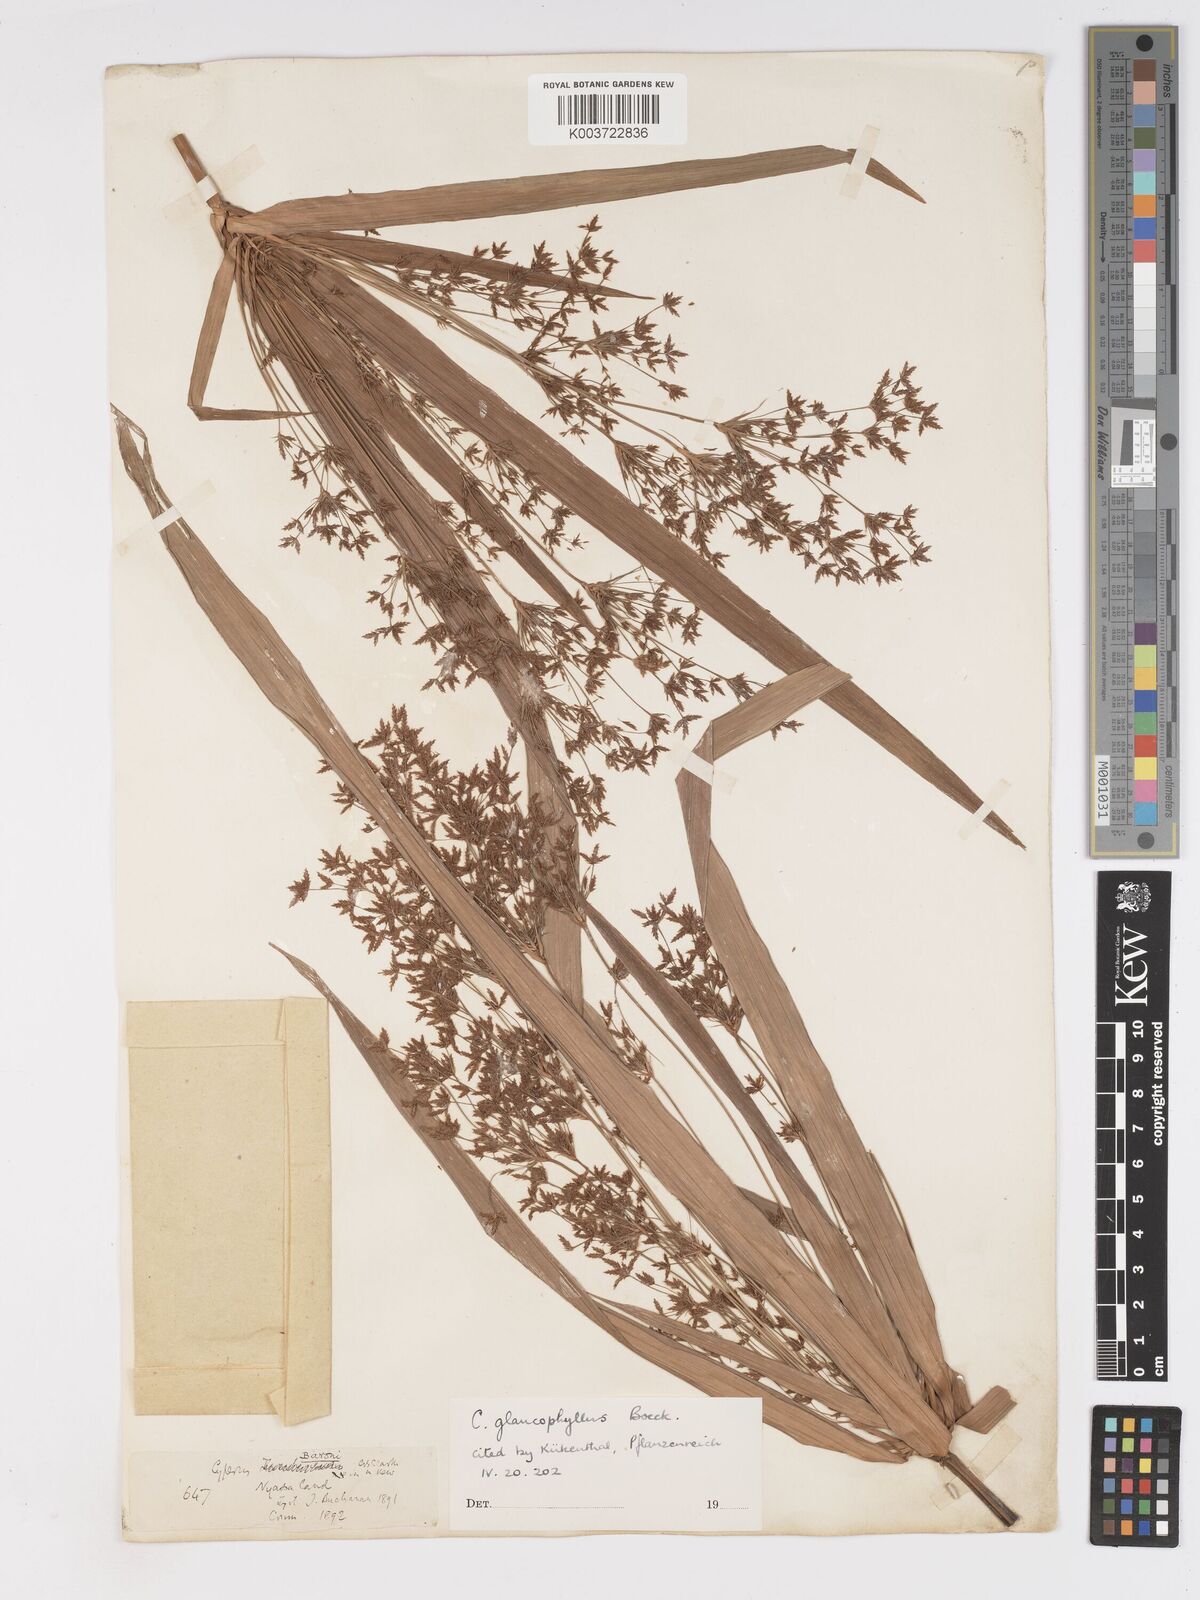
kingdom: Plantae
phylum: Tracheophyta
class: Liliopsida
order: Poales
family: Cyperaceae
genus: Cyperus
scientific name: Cyperus glaucophyllus
